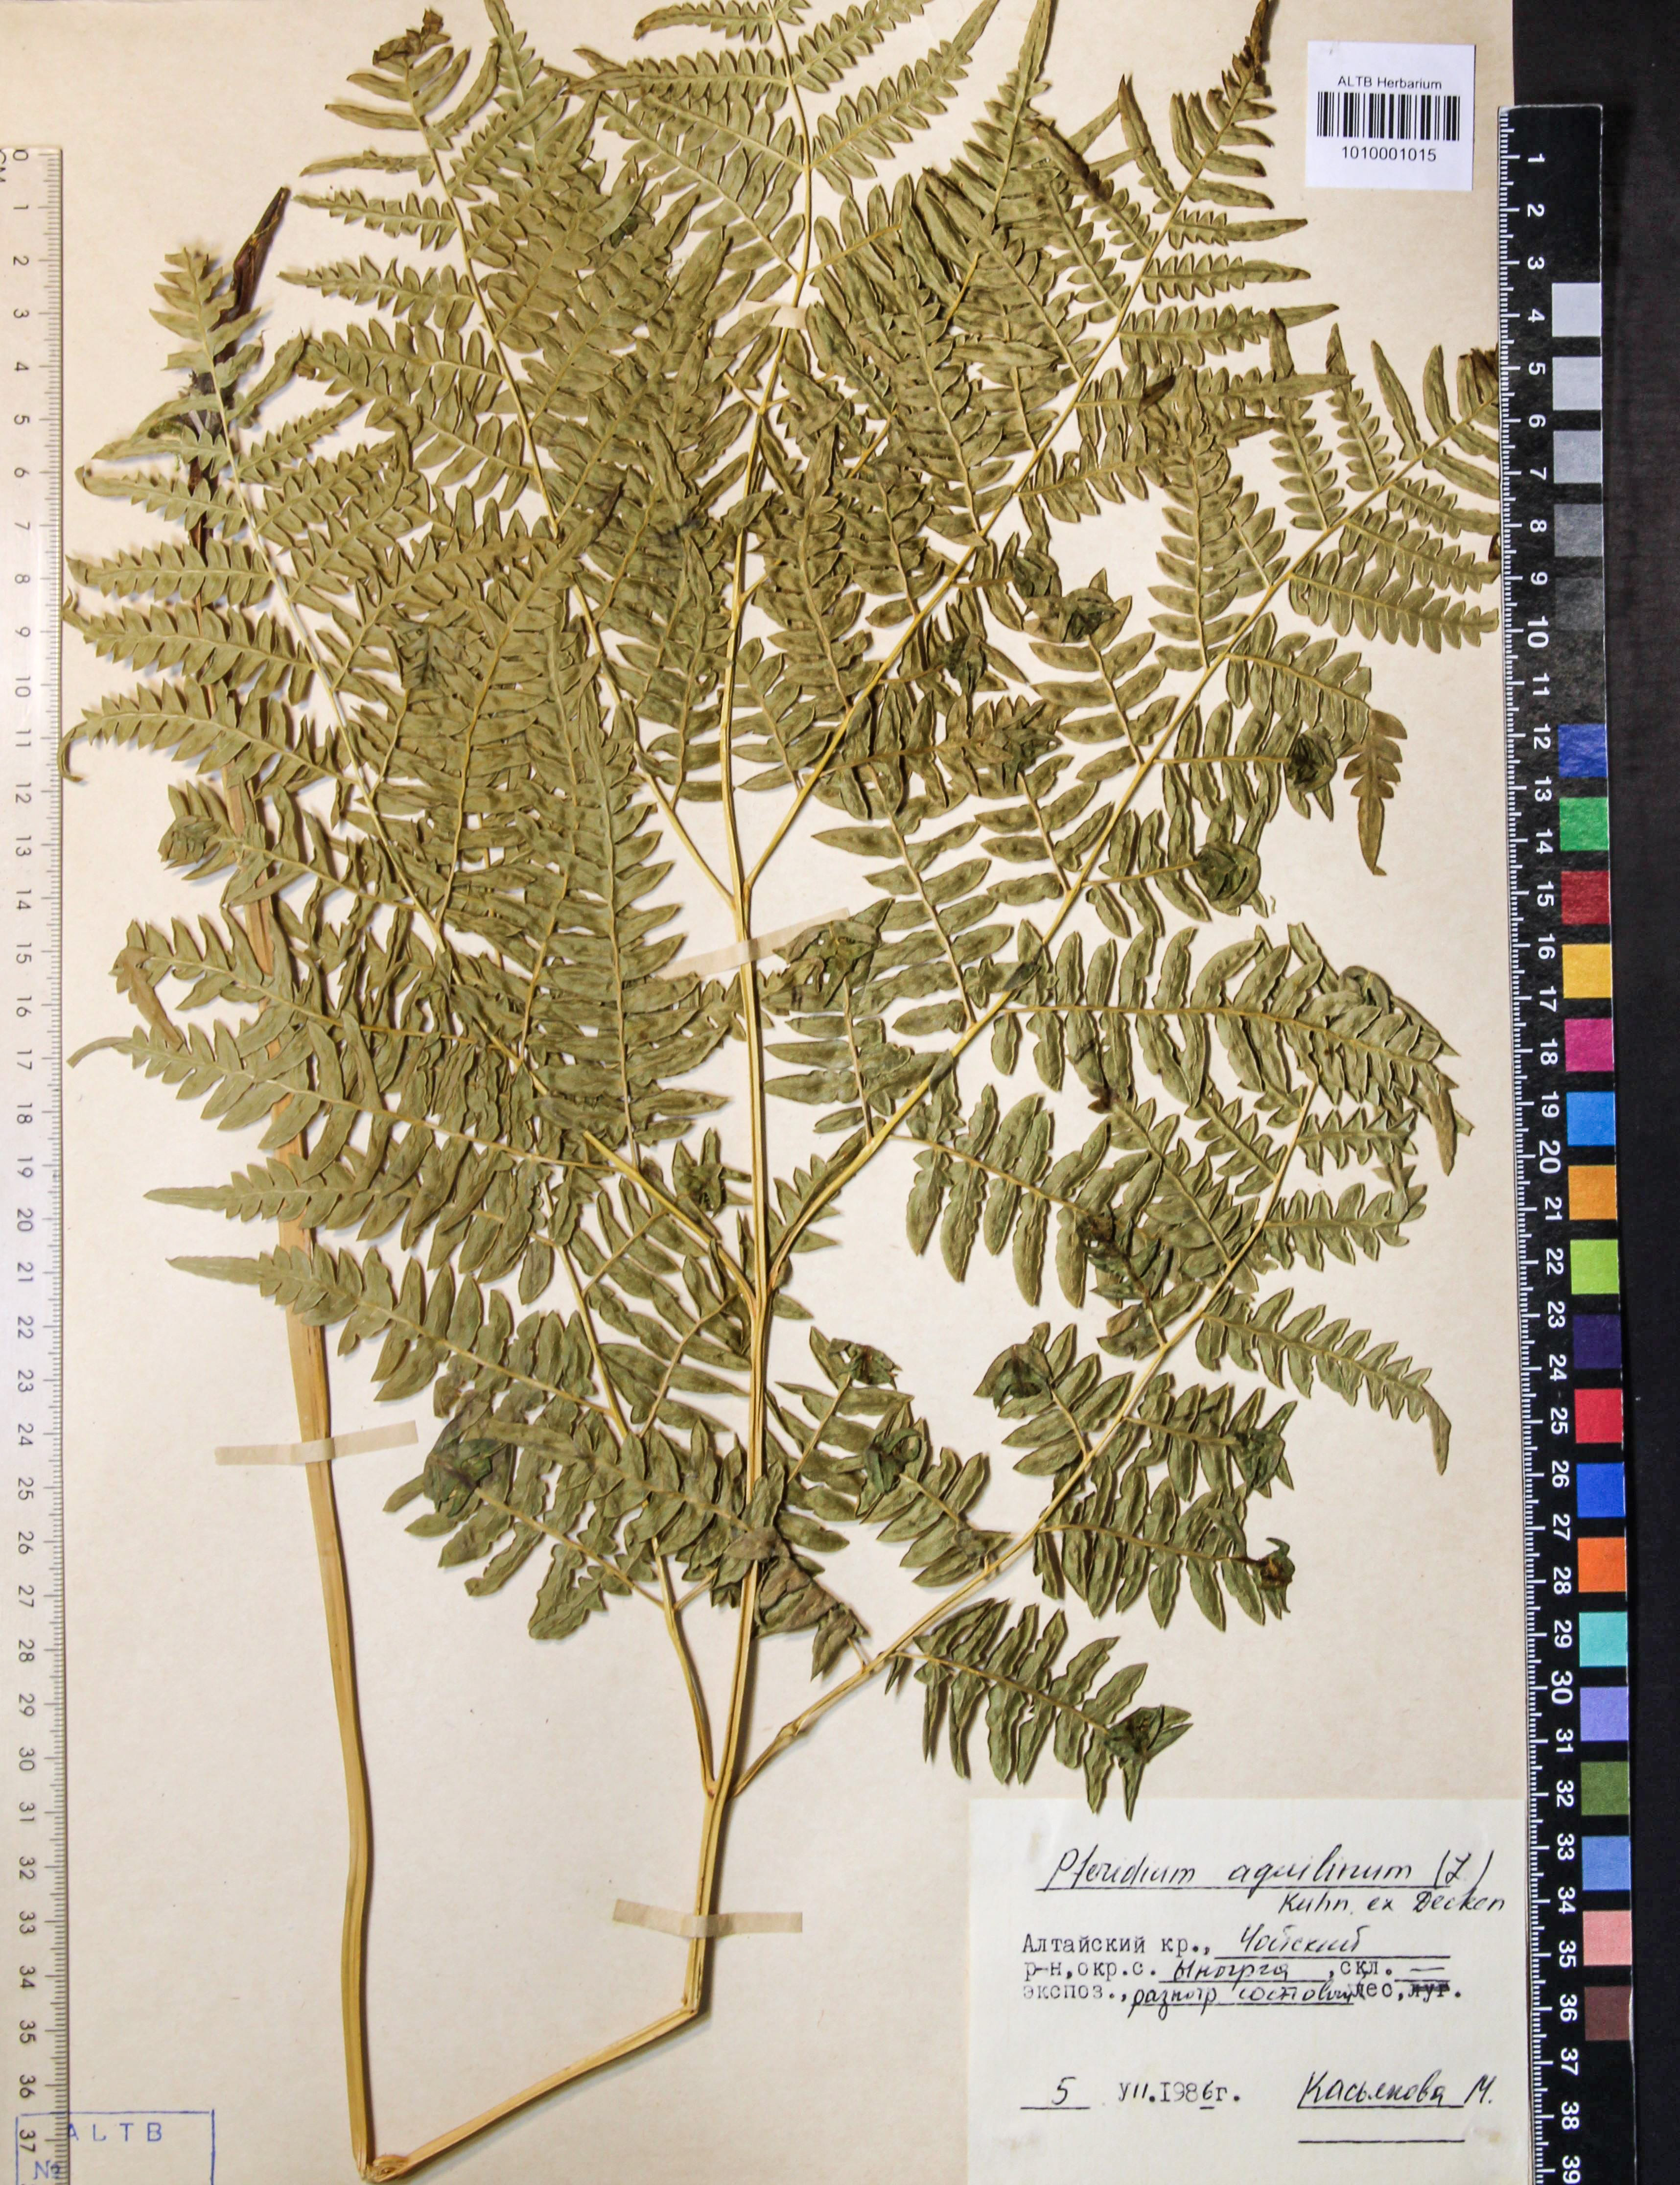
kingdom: Plantae
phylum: Tracheophyta
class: Polypodiopsida
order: Polypodiales
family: Dennstaedtiaceae
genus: Pteridium
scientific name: Pteridium aquilinum
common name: Bracken
